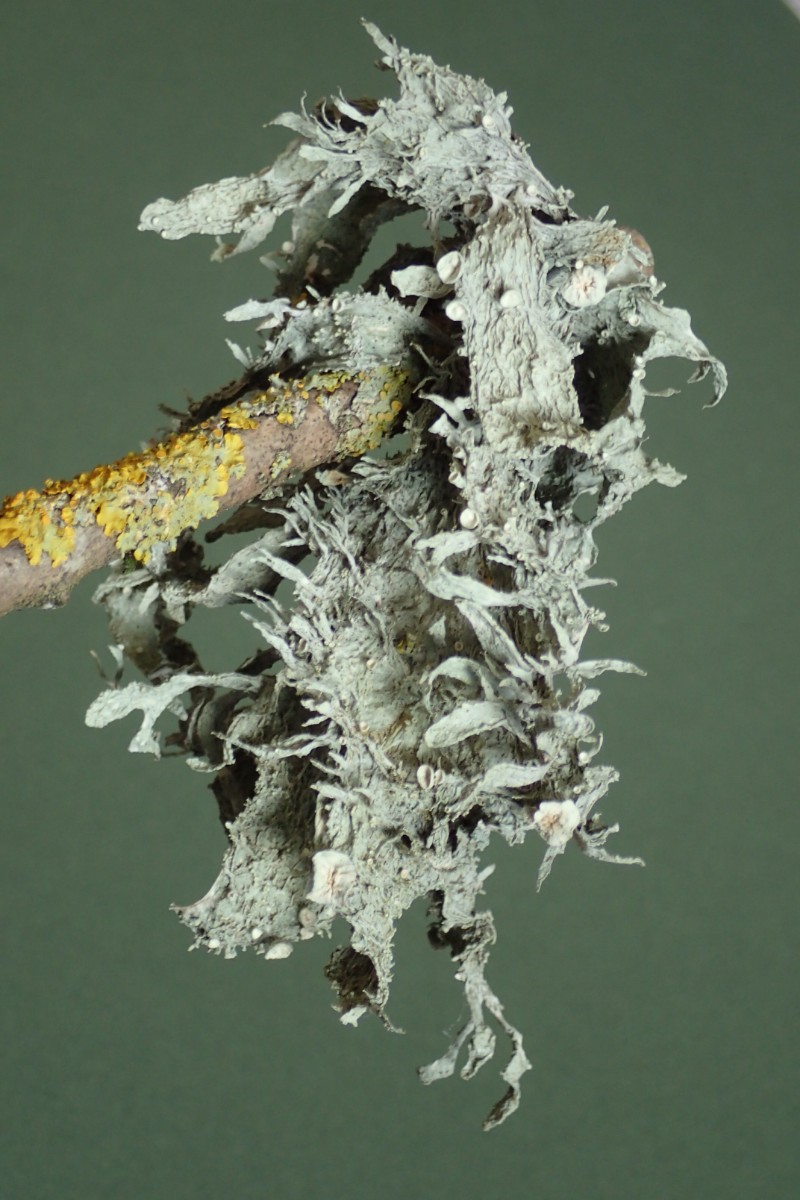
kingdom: Fungi
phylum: Ascomycota
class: Lecanoromycetes
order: Lecanorales
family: Ramalinaceae
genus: Ramalina
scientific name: Ramalina fraxinea
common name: stor grenlav
